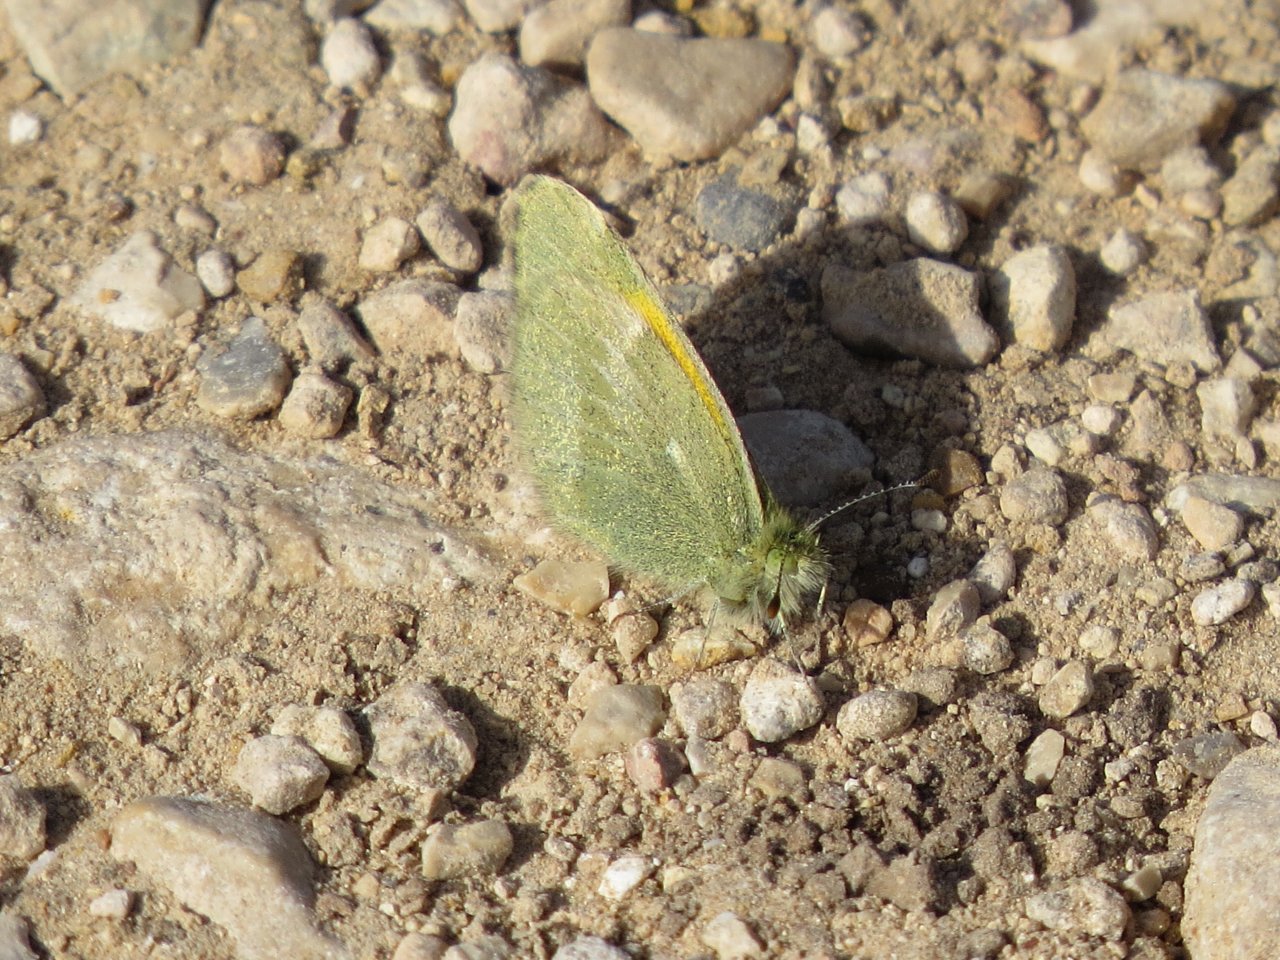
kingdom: Animalia
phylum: Arthropoda
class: Insecta
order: Lepidoptera
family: Pieridae
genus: Nathalis
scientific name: Nathalis iole
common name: Dainty Sulphur
